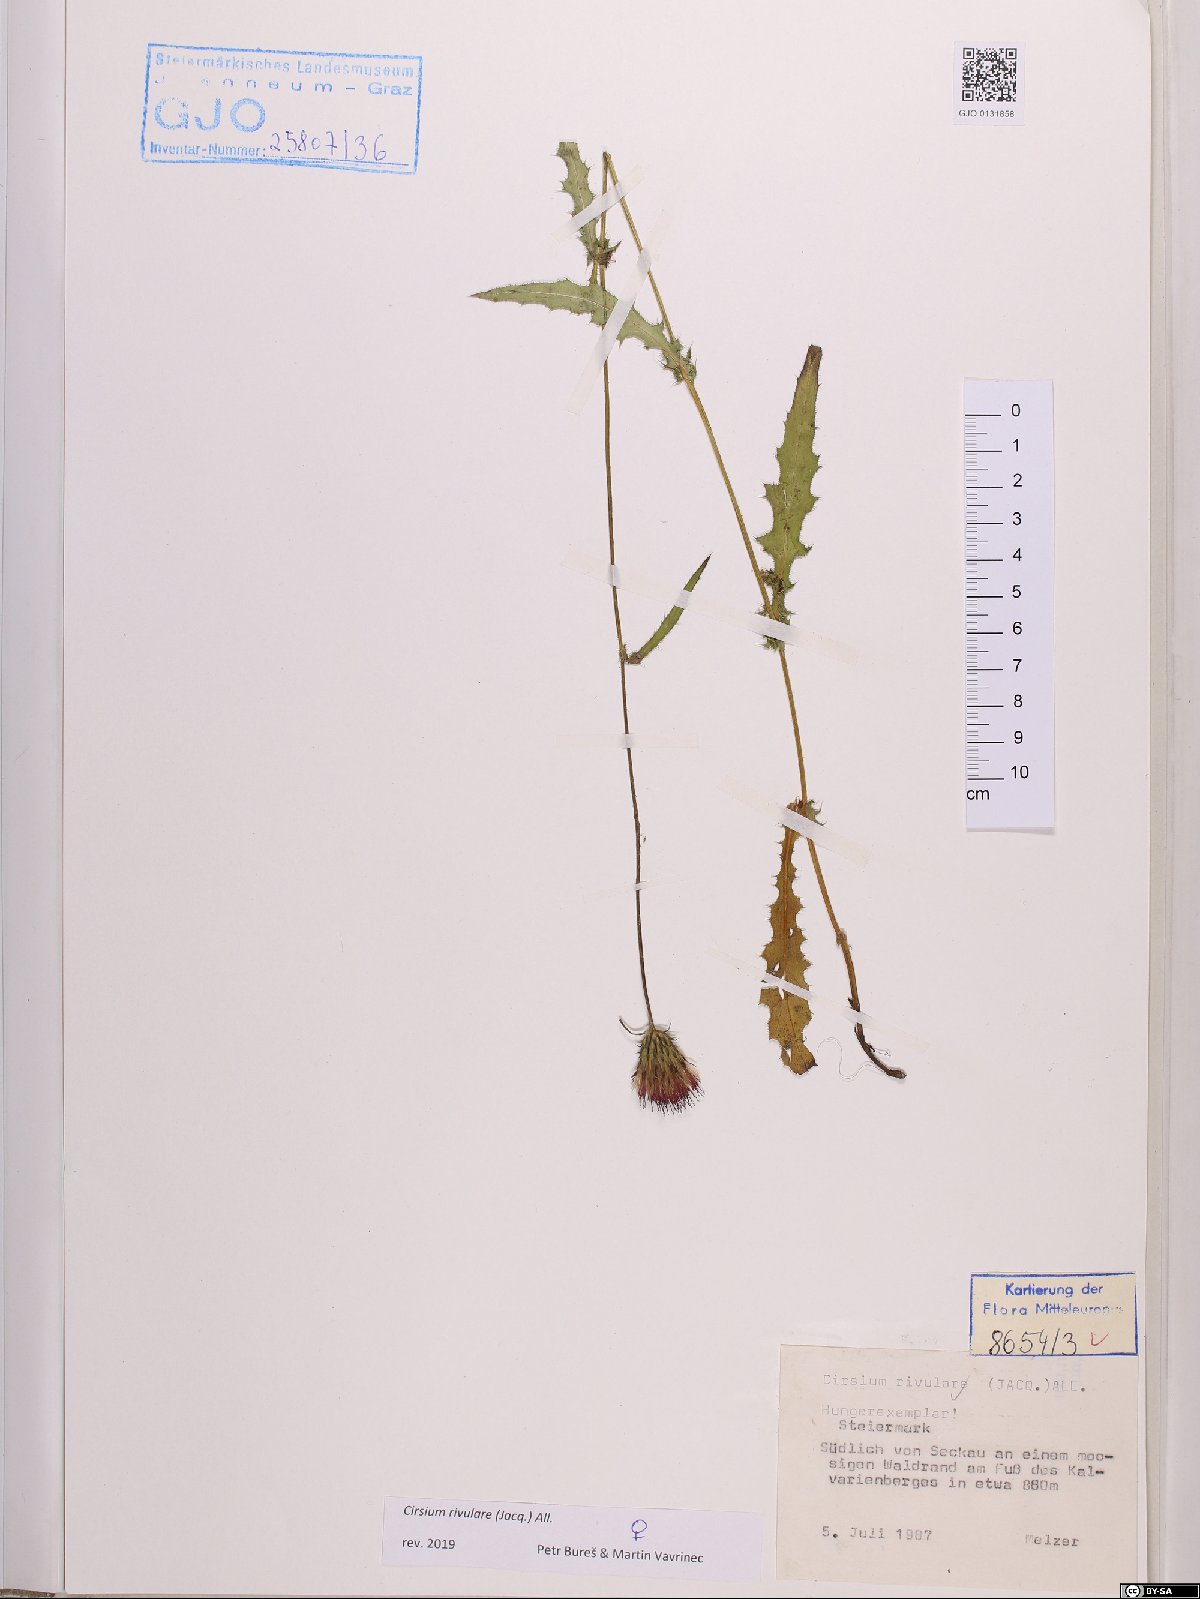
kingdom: Plantae
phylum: Tracheophyta
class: Magnoliopsida
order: Asterales
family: Asteraceae
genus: Cirsium
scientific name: Cirsium rivulare
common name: Brook thistle
